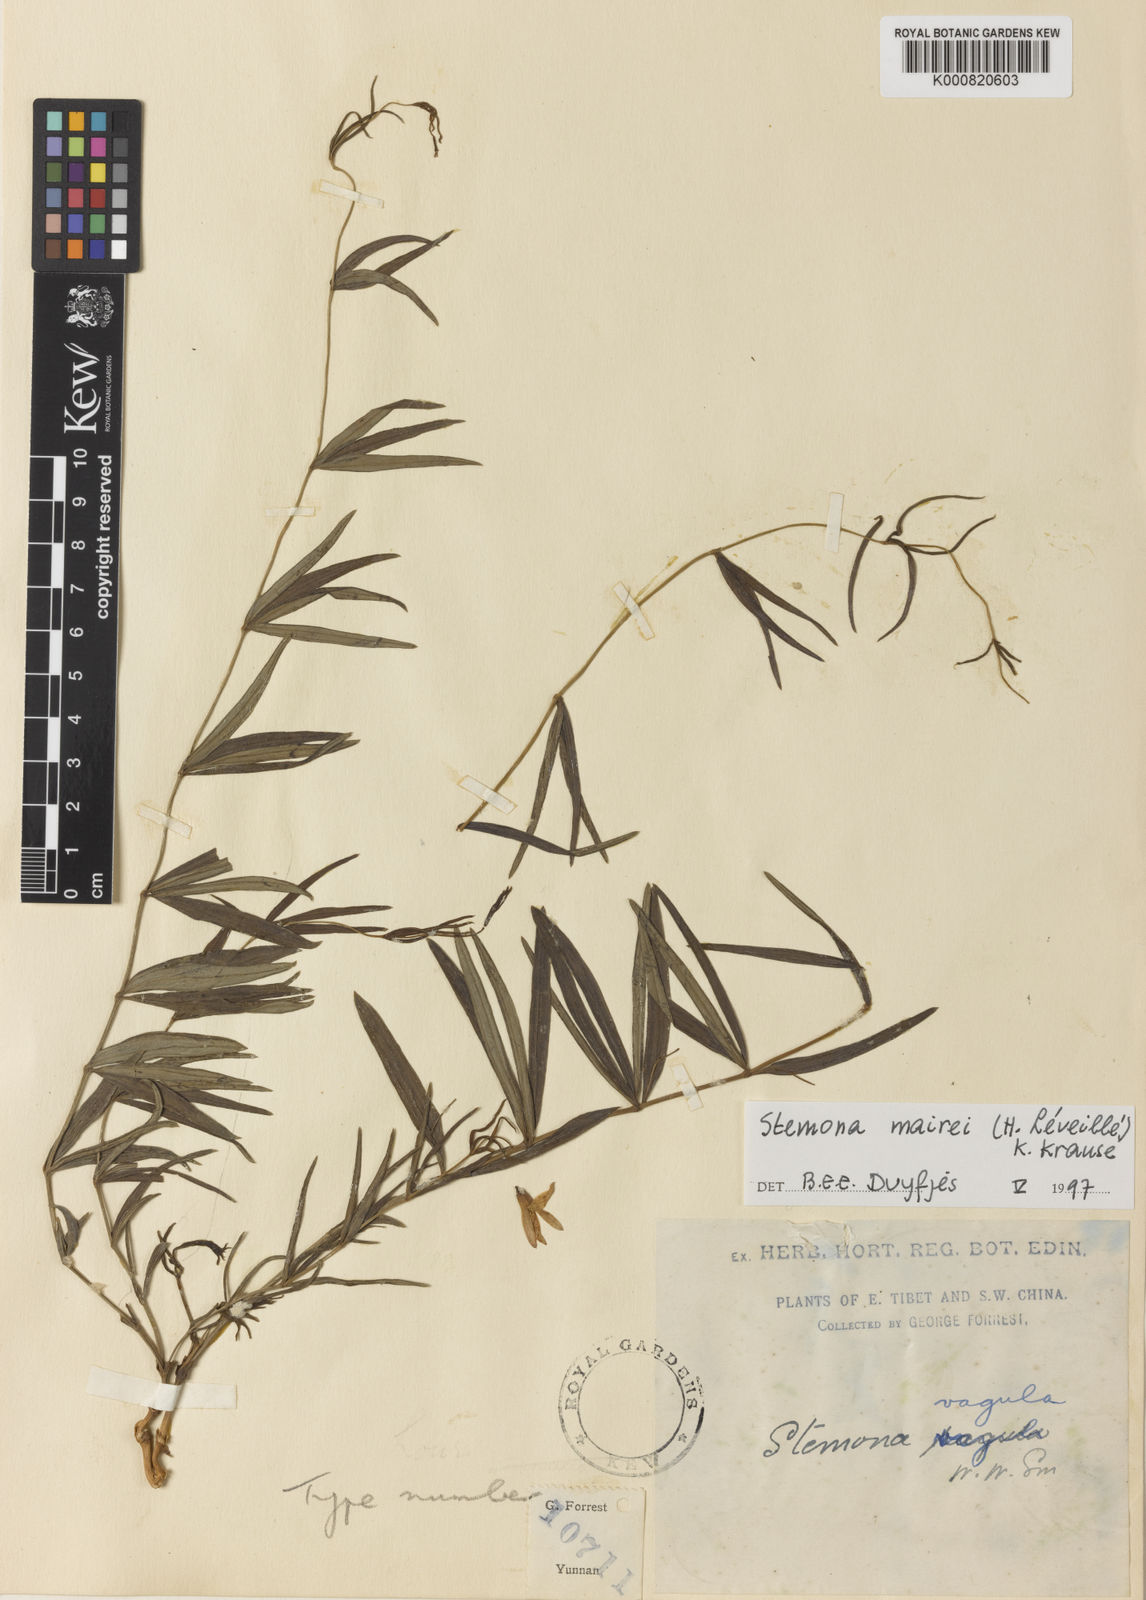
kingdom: Plantae
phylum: Tracheophyta
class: Liliopsida
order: Pandanales
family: Stemonaceae
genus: Stemona
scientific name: Stemona mairei
